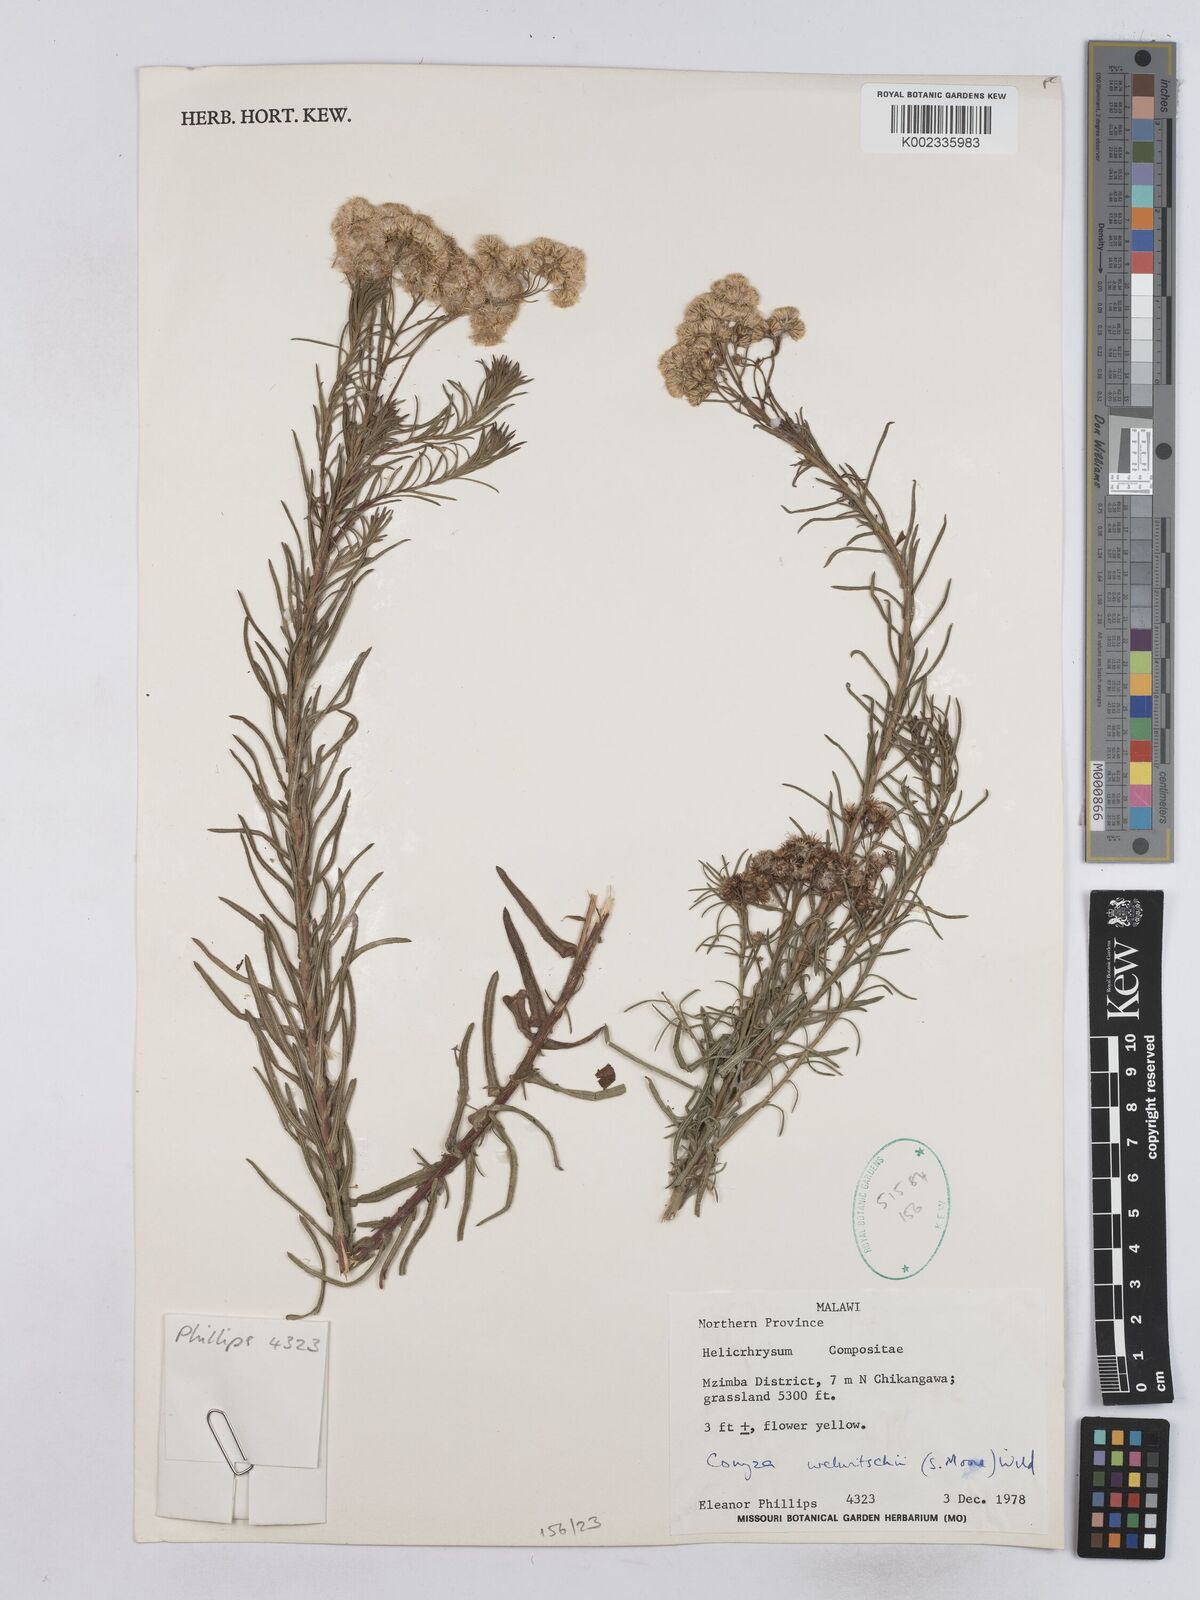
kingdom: Plantae
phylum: Tracheophyta
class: Magnoliopsida
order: Asterales
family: Asteraceae
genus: Nidorella
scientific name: Nidorella welwitschii
